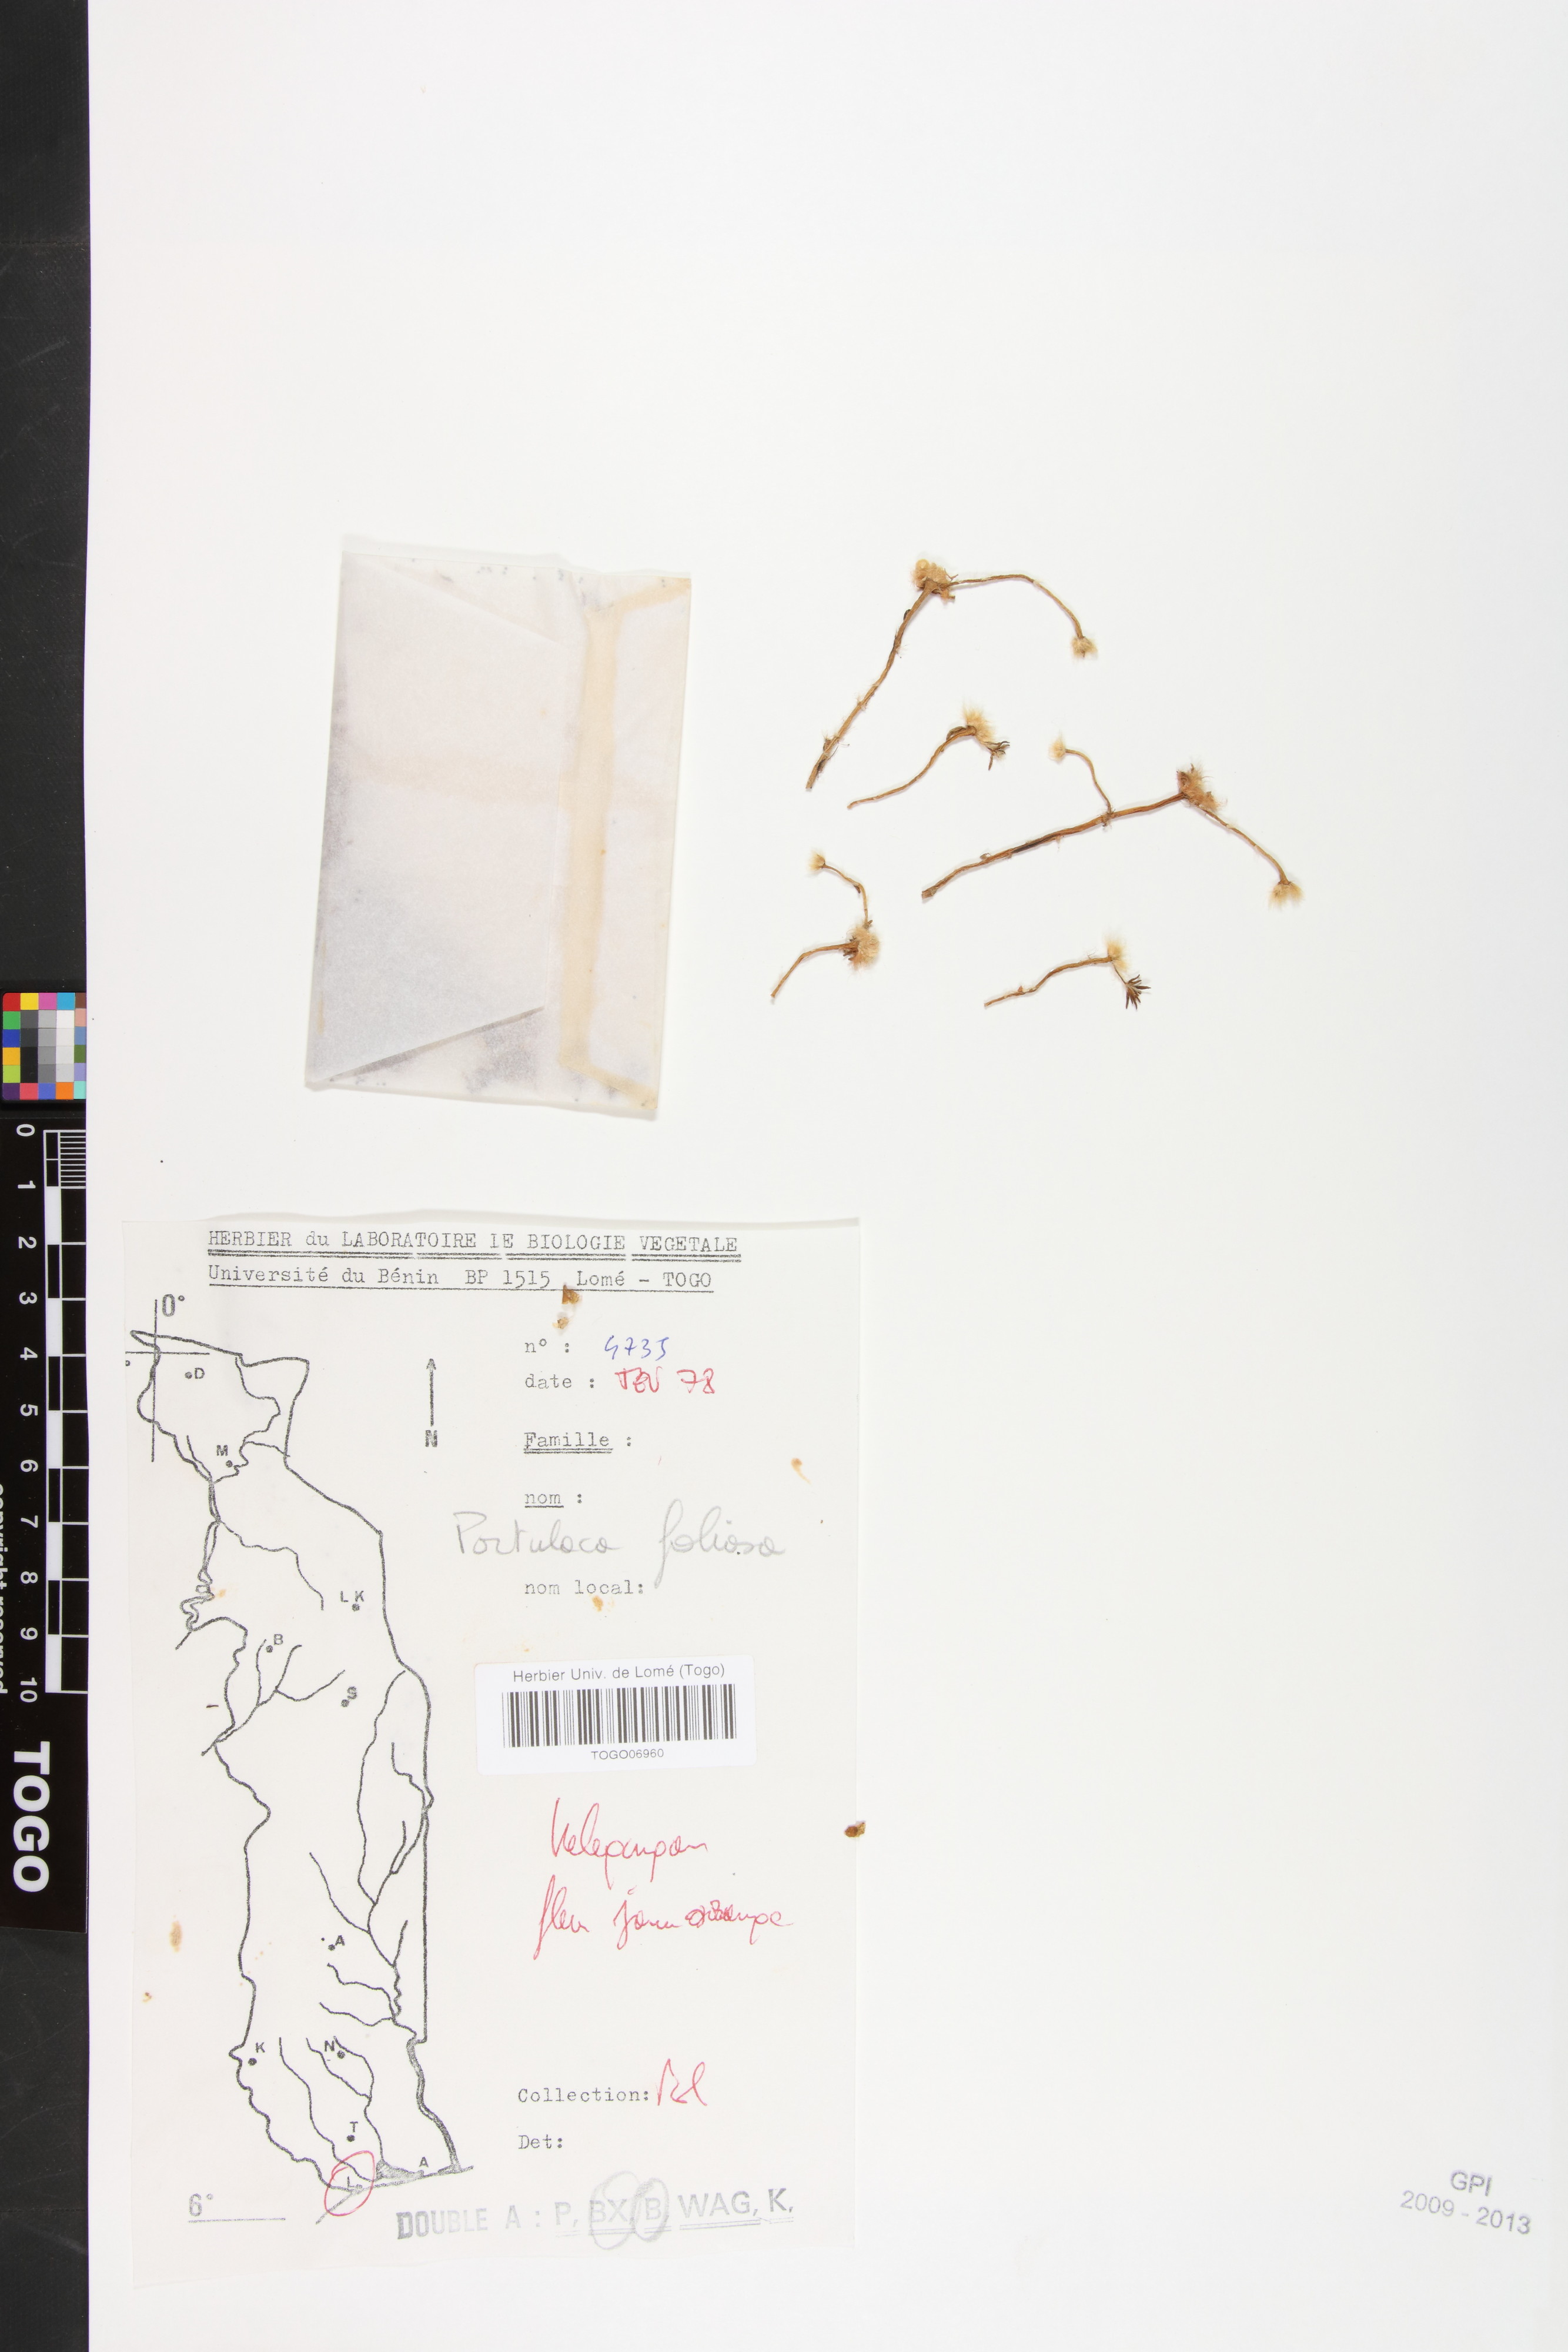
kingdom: Plantae
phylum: Tracheophyta
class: Magnoliopsida
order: Caryophyllales
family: Portulacaceae
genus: Portulaca
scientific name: Portulaca foliosa
